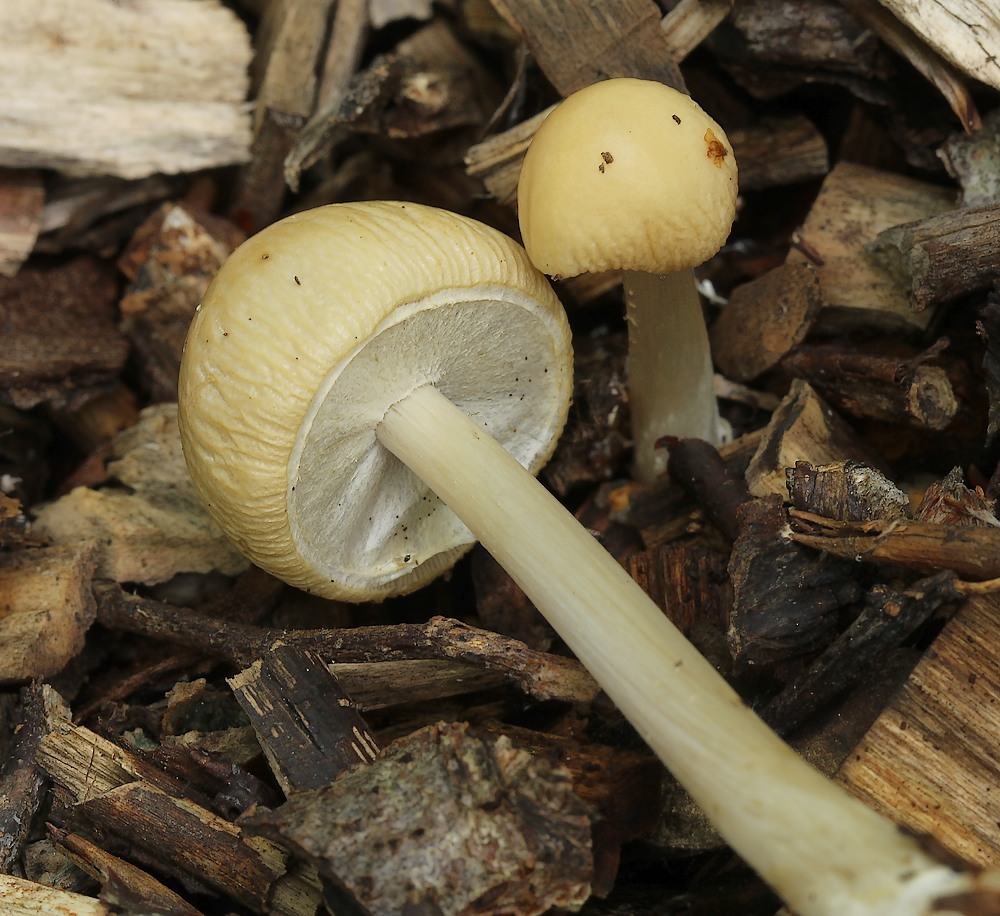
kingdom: Fungi
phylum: Basidiomycota
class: Agaricomycetes
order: Agaricales
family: Strophariaceae
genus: Agrocybe
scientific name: Agrocybe rivulosa
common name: året agerhat
